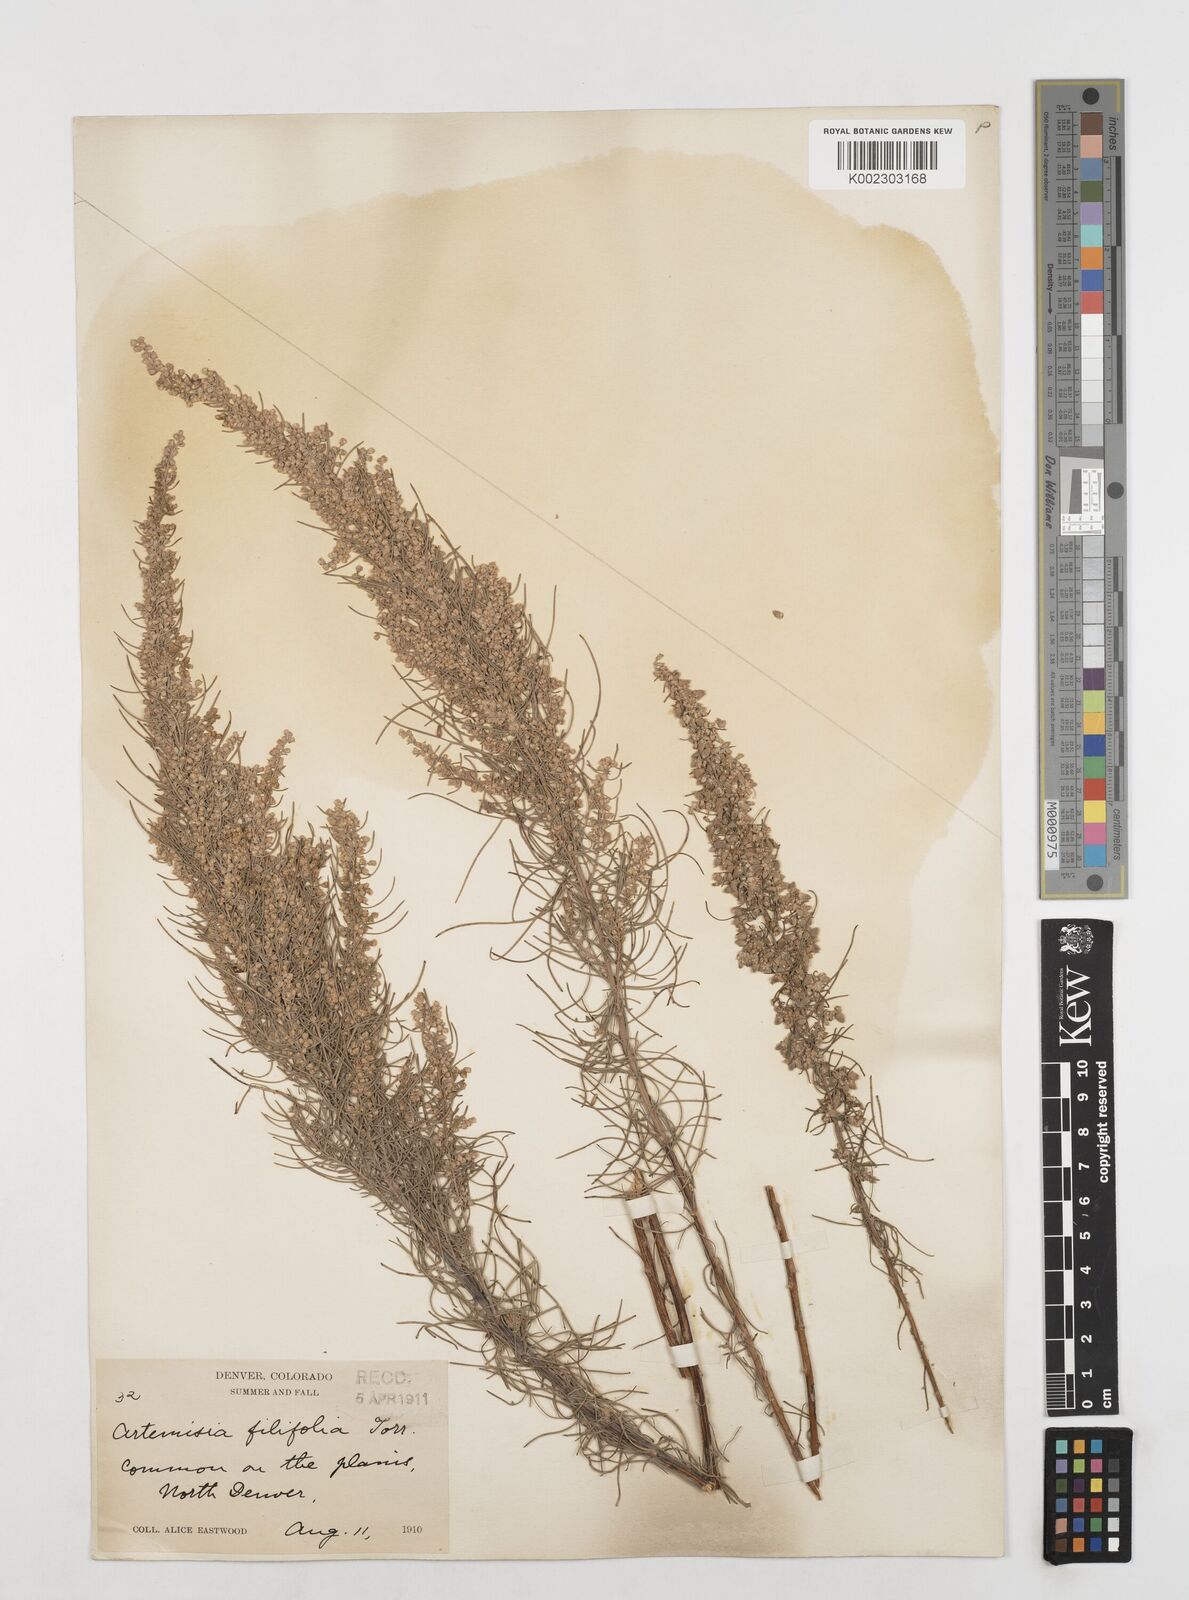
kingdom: Plantae
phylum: Tracheophyta
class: Magnoliopsida
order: Asterales
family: Asteraceae
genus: Artemisia
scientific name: Artemisia filifolia
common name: Sand-sage
